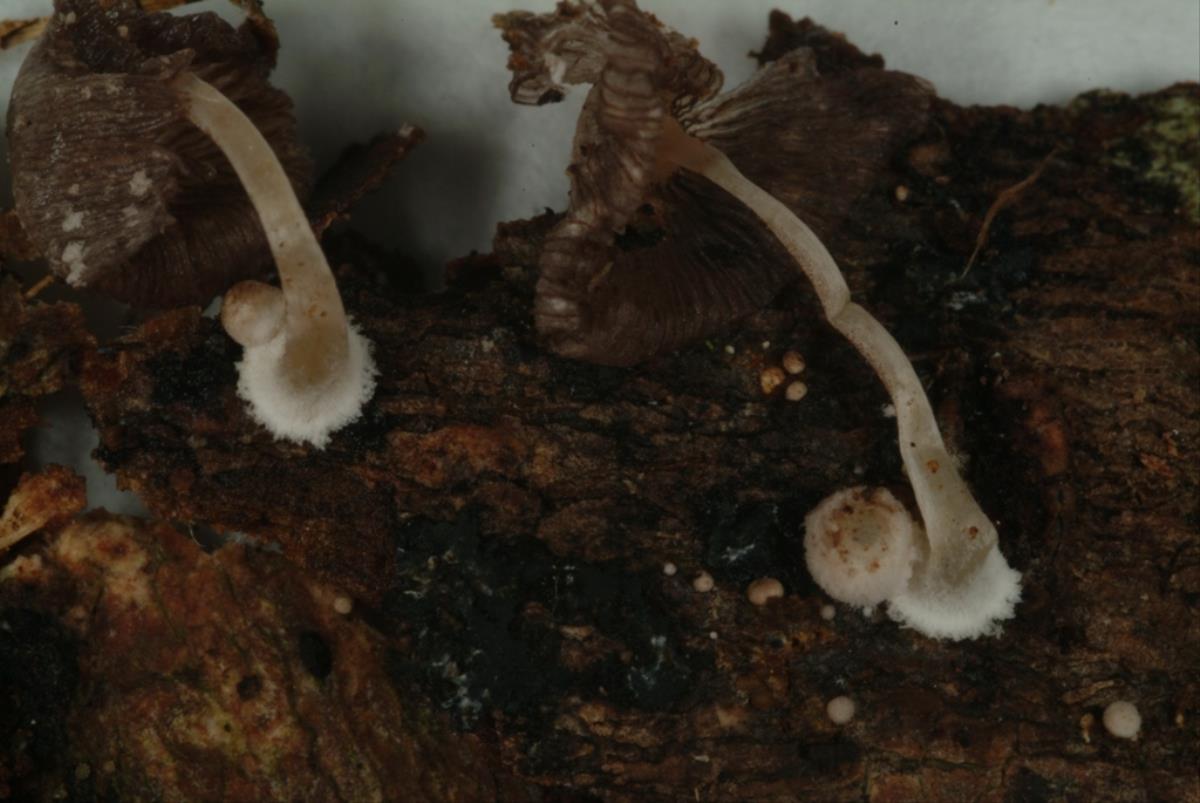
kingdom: Fungi
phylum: Basidiomycota
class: Agaricomycetes
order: Agaricales
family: Psathyrellaceae
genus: Coprinopsis
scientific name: Coprinopsis urticicola
